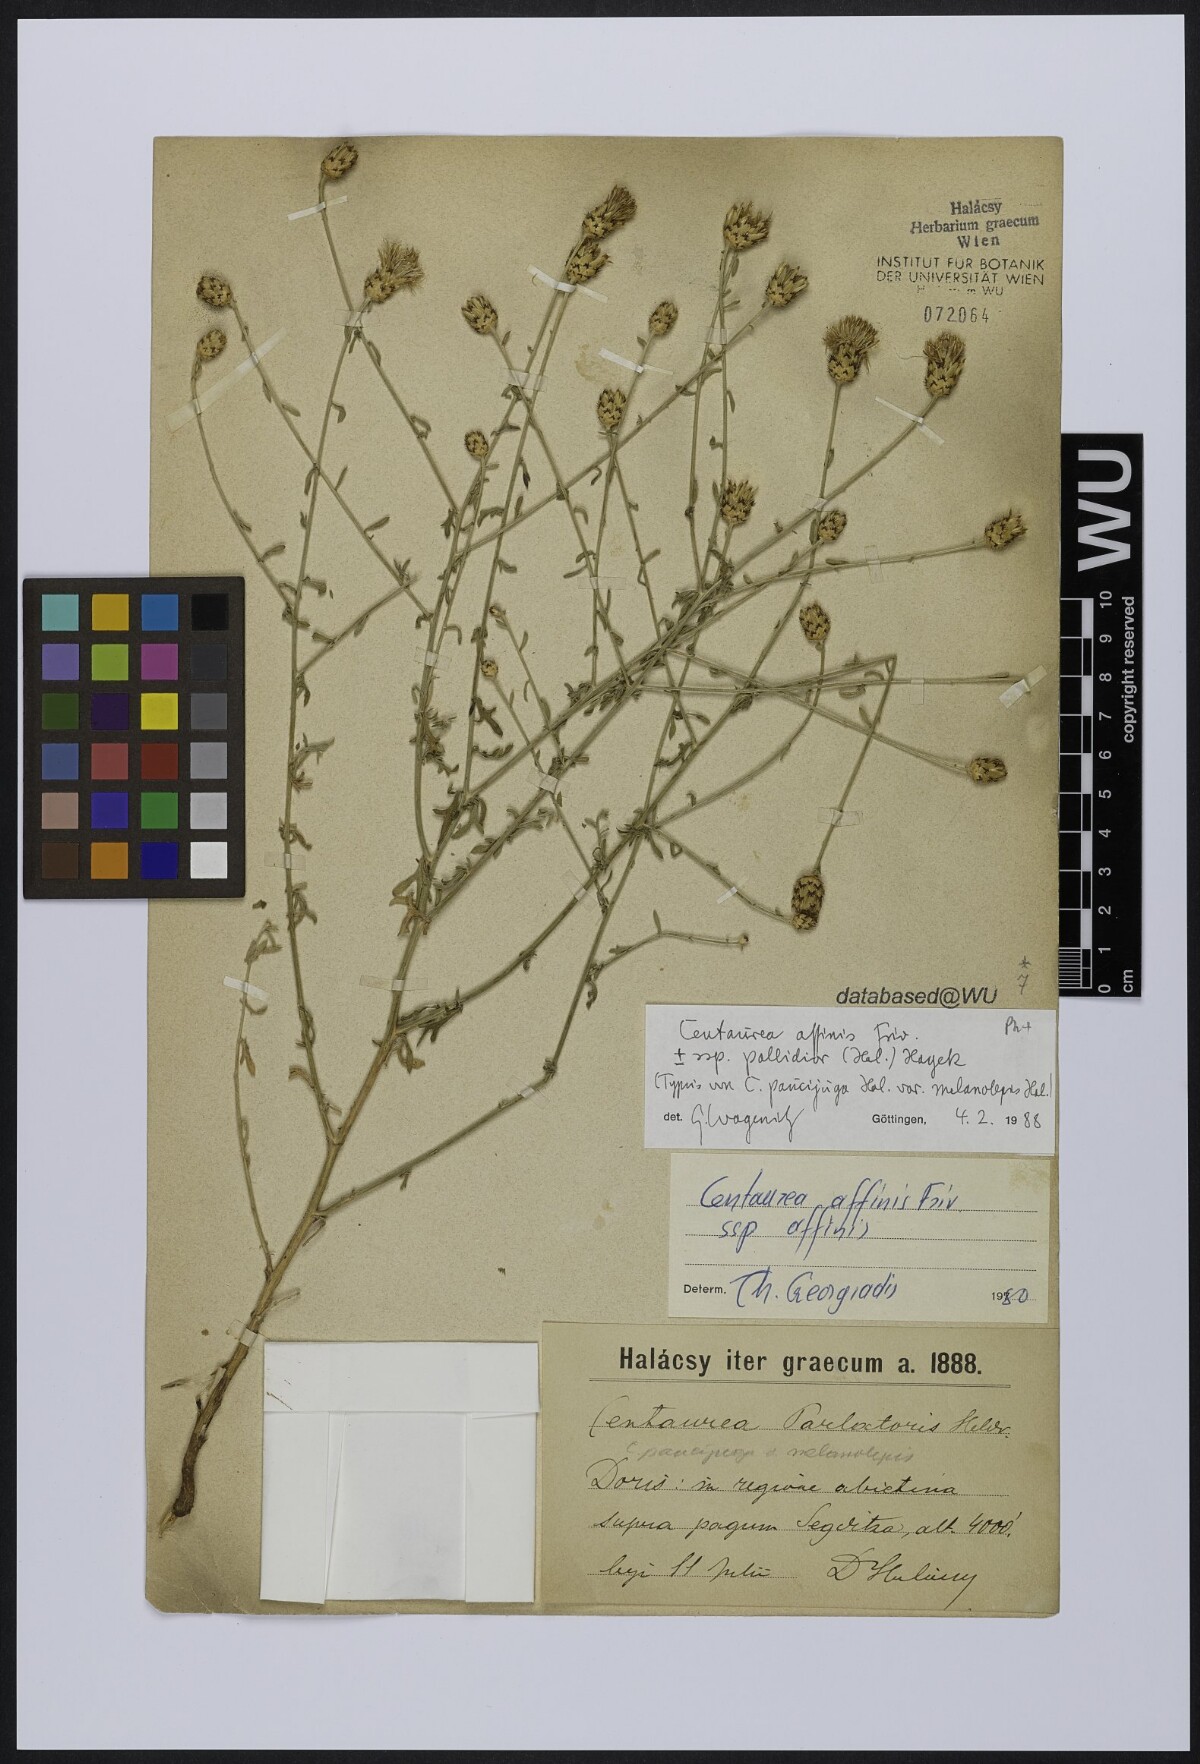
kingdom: Plantae
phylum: Tracheophyta
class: Magnoliopsida
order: Asterales
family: Asteraceae
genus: Centaurea
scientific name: Centaurea affinis
